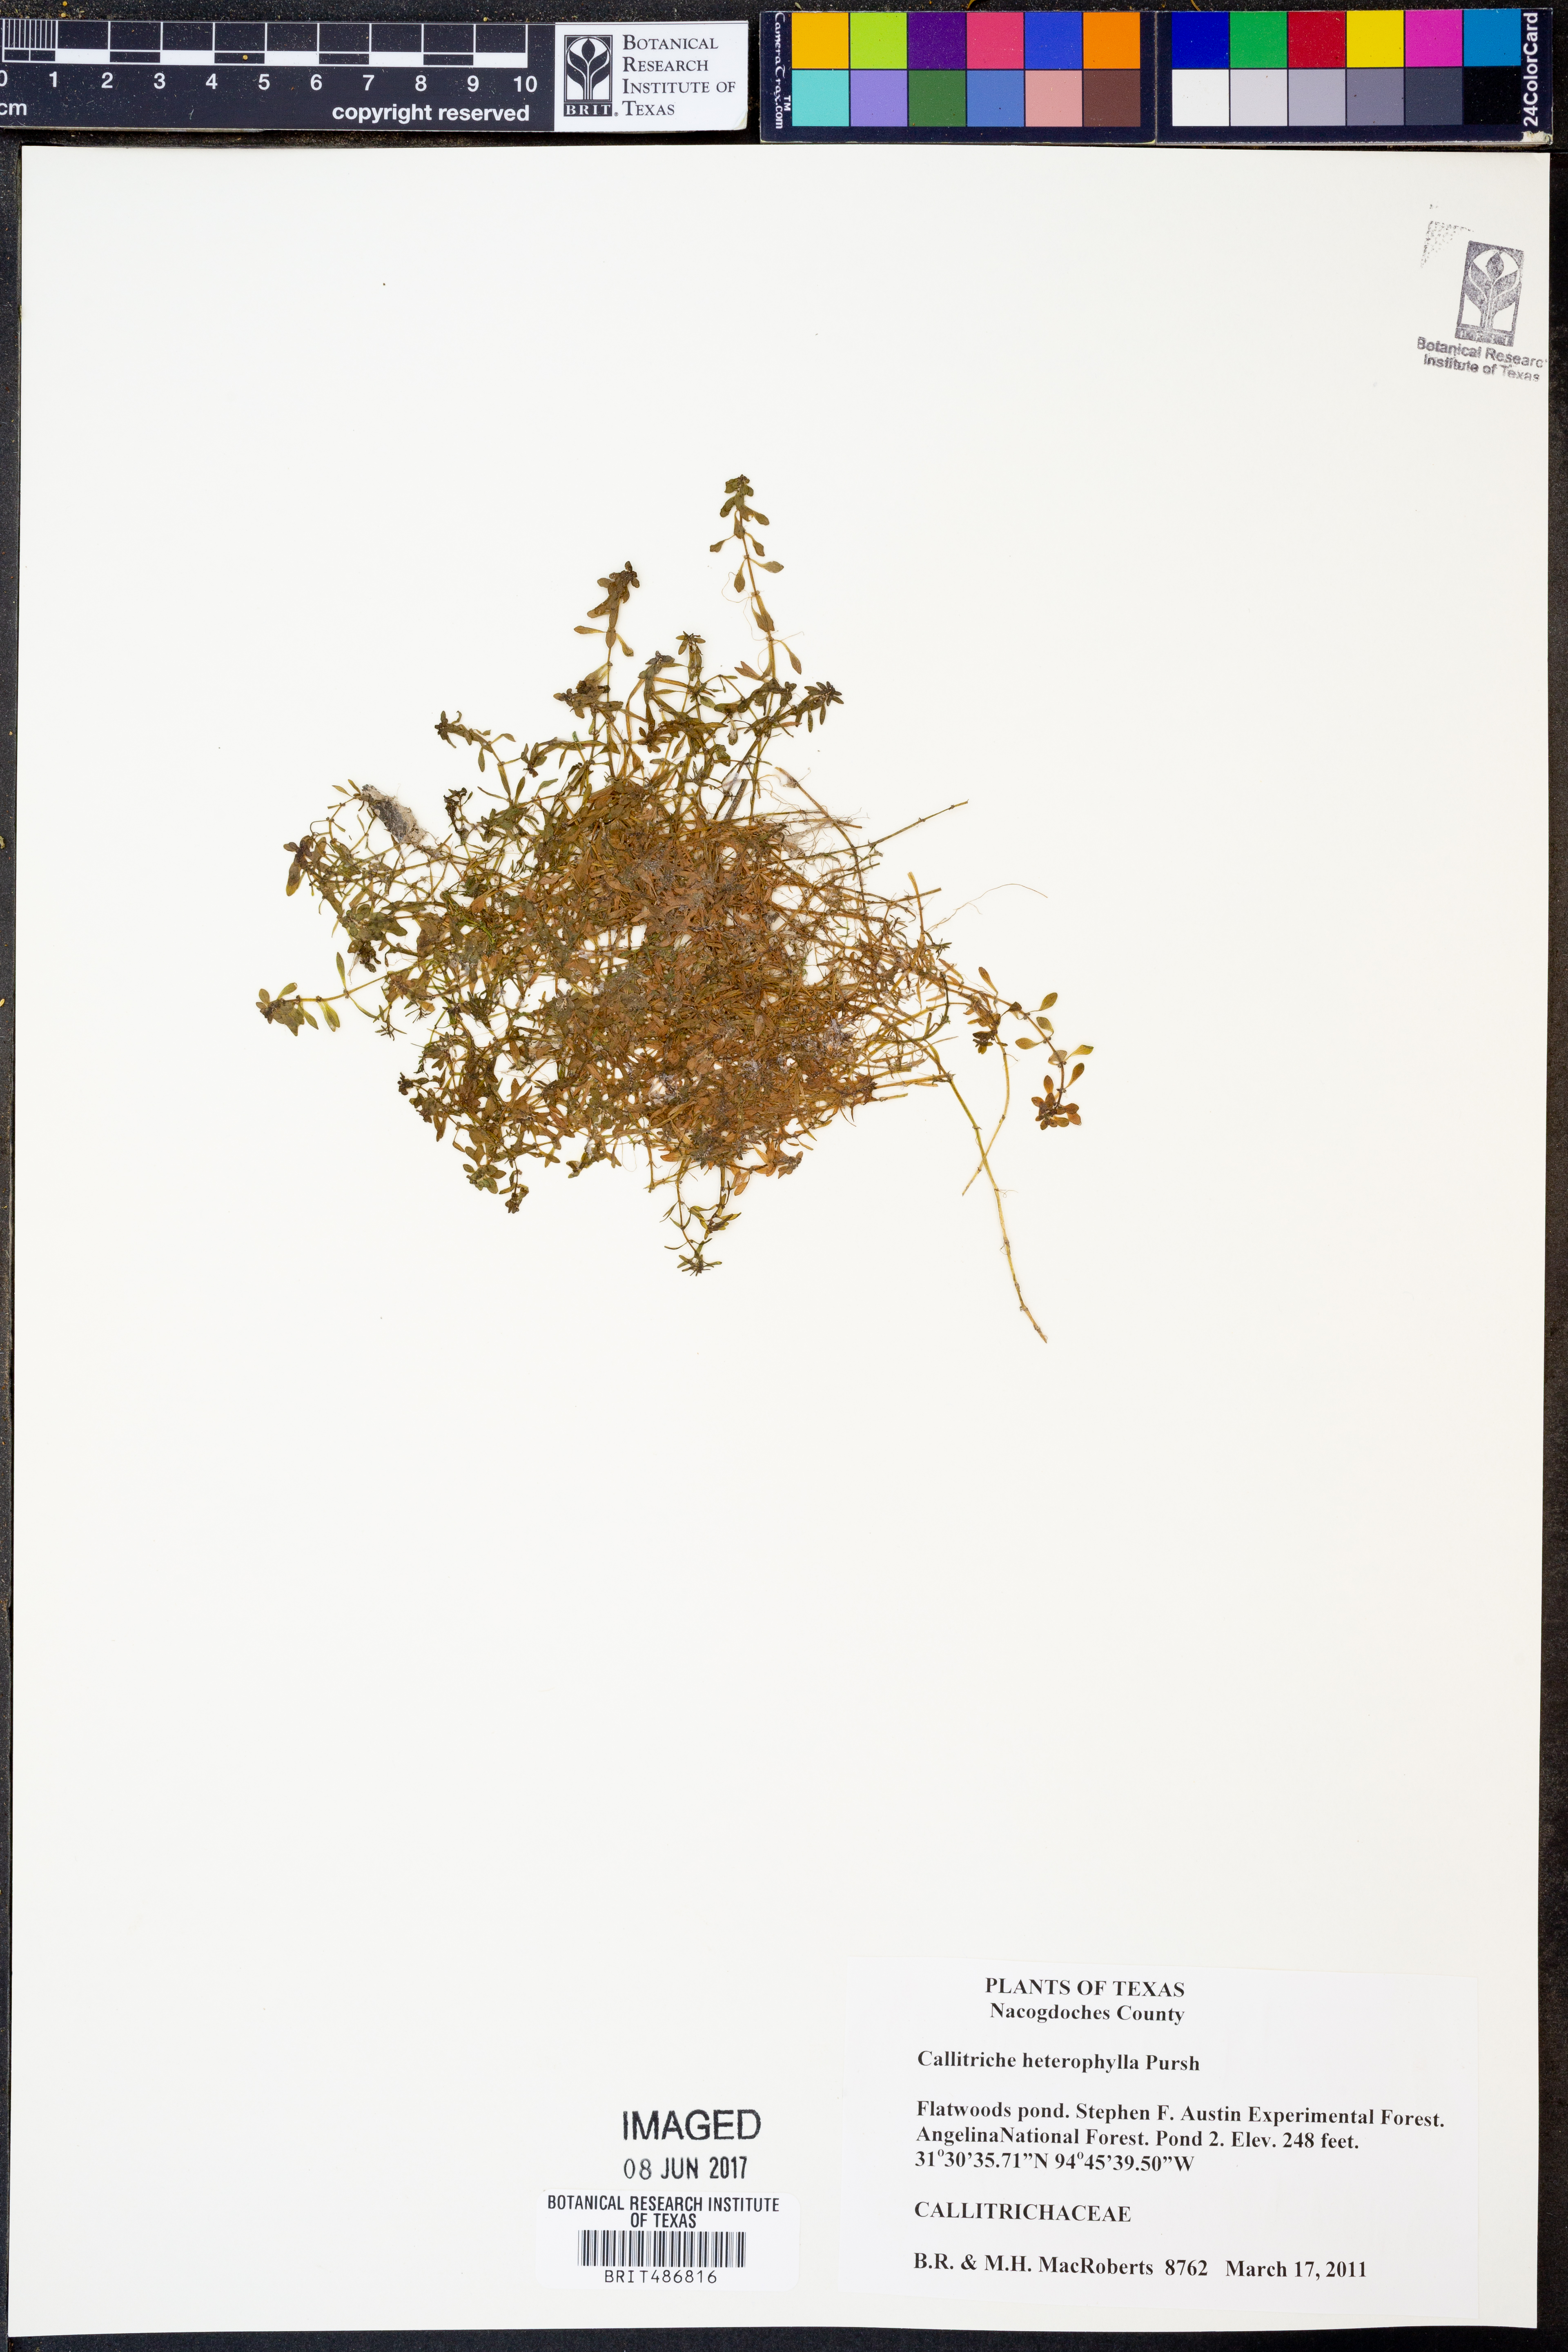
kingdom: Plantae
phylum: Tracheophyta
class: Magnoliopsida
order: Lamiales
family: Plantaginaceae
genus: Callitriche
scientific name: Callitriche heterophylla
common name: Two-headed water-starwort
